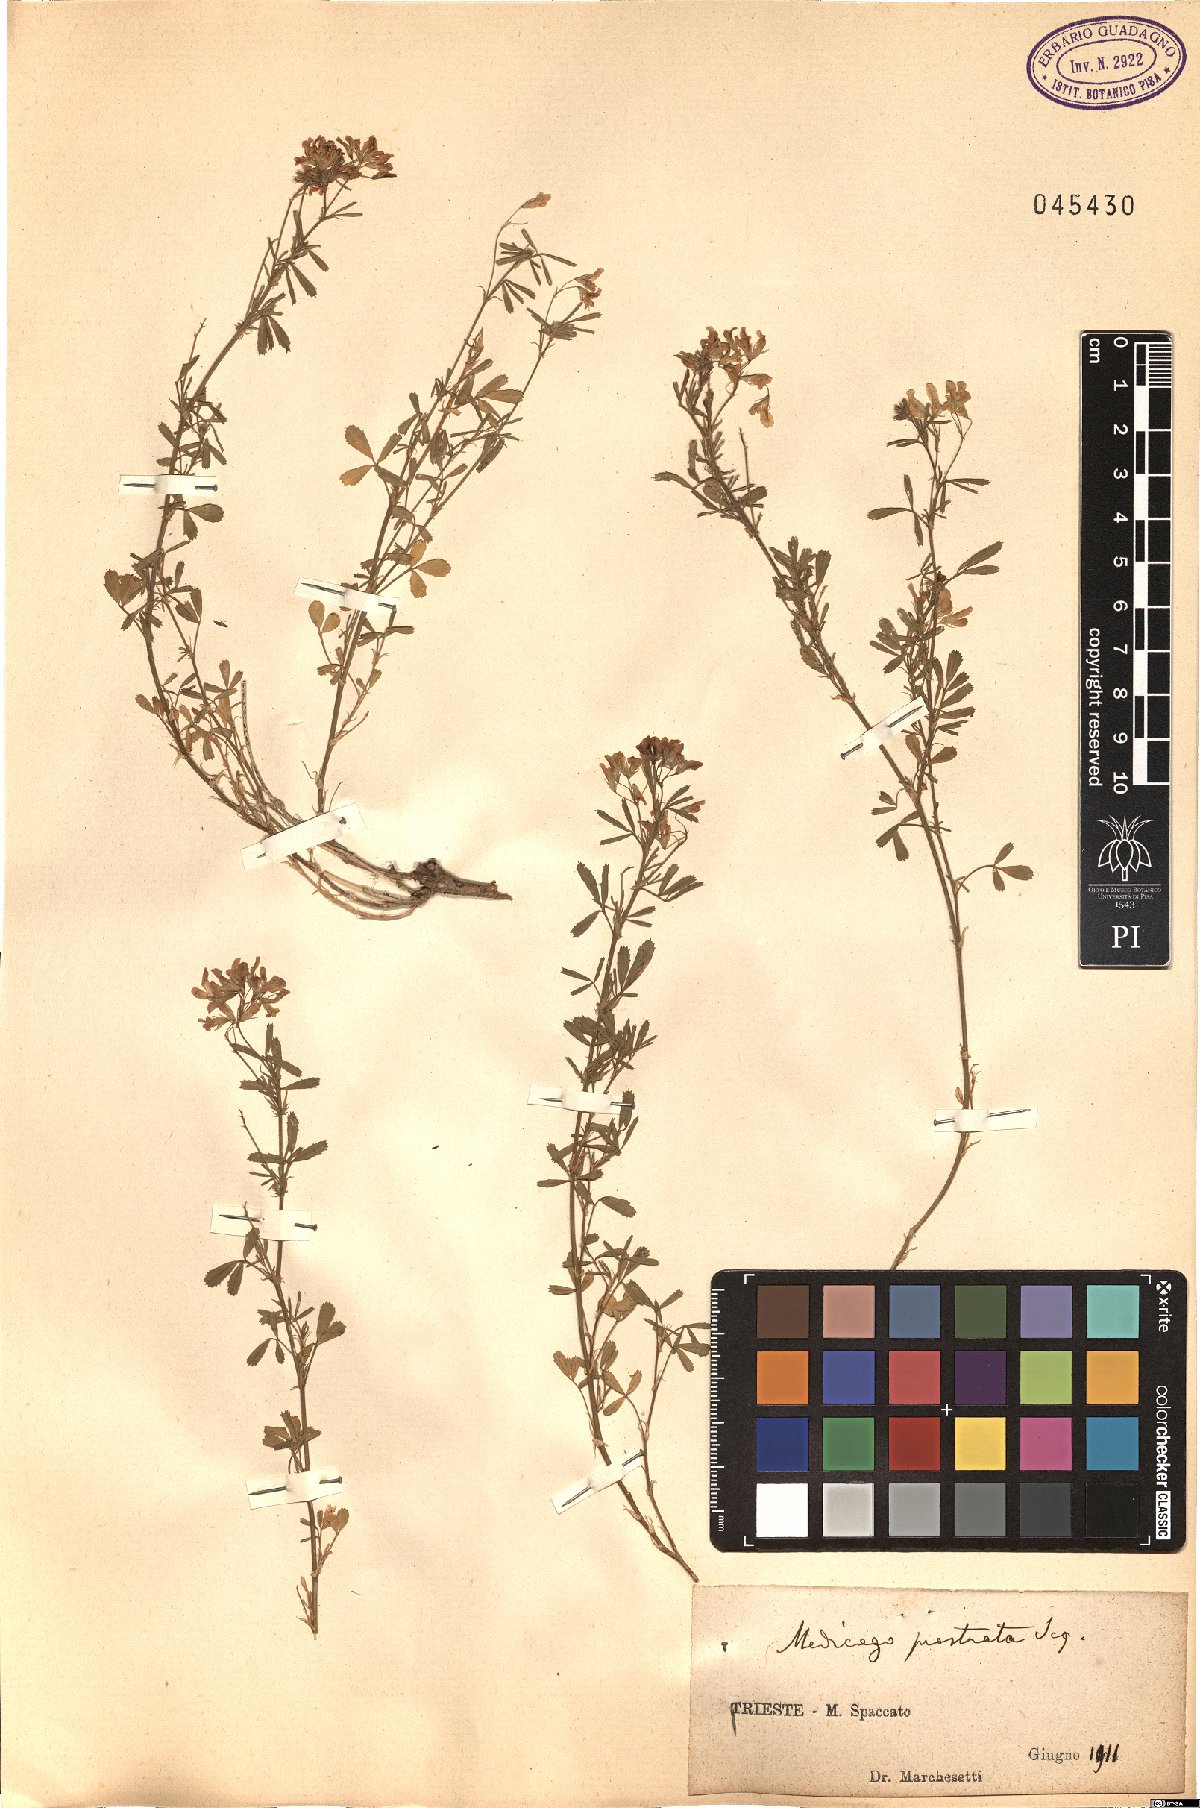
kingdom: Plantae
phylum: Tracheophyta
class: Magnoliopsida
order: Fabales
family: Fabaceae
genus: Medicago
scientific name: Medicago prostrata
